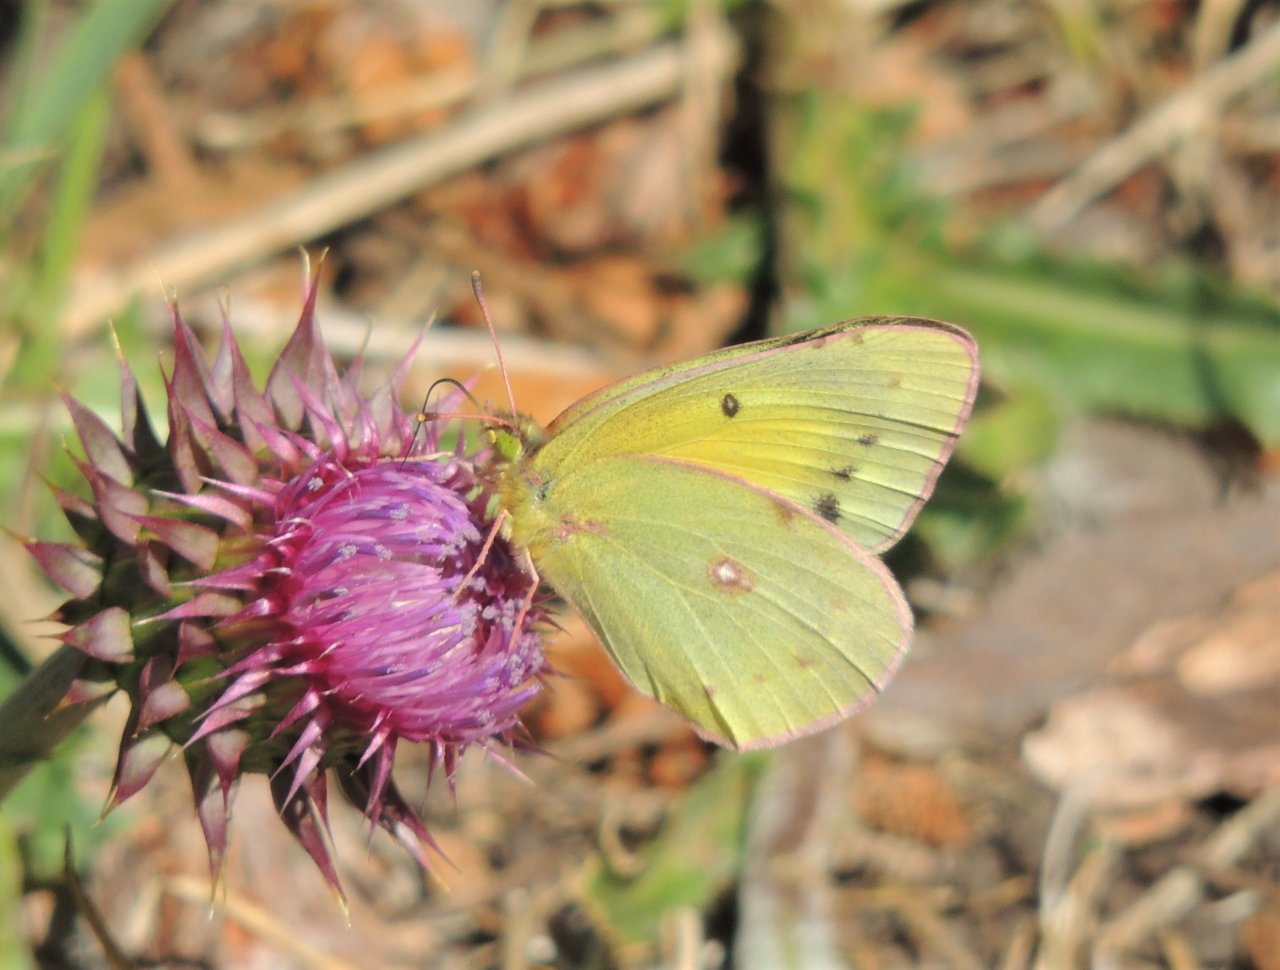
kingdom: Animalia
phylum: Arthropoda
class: Insecta
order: Lepidoptera
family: Pieridae
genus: Colias
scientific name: Colias eurytheme
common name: Orange Sulphur
